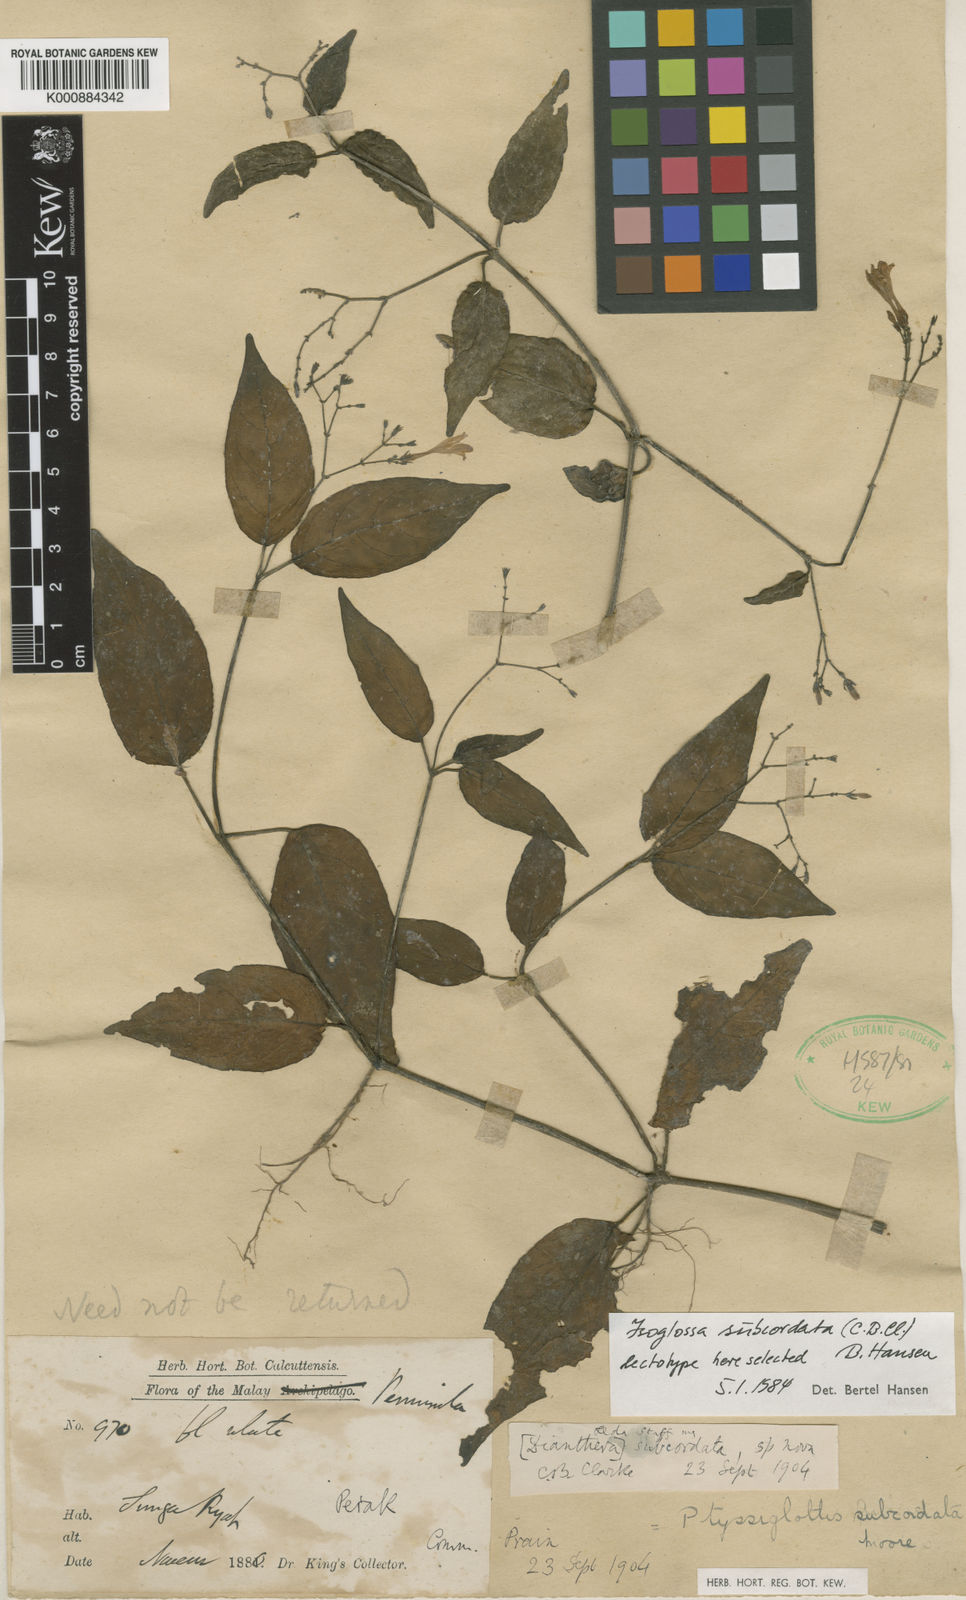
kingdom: Plantae
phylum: Tracheophyta
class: Magnoliopsida
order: Lamiales
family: Acanthaceae
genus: Ptyssiglottis
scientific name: Ptyssiglottis subcordata
